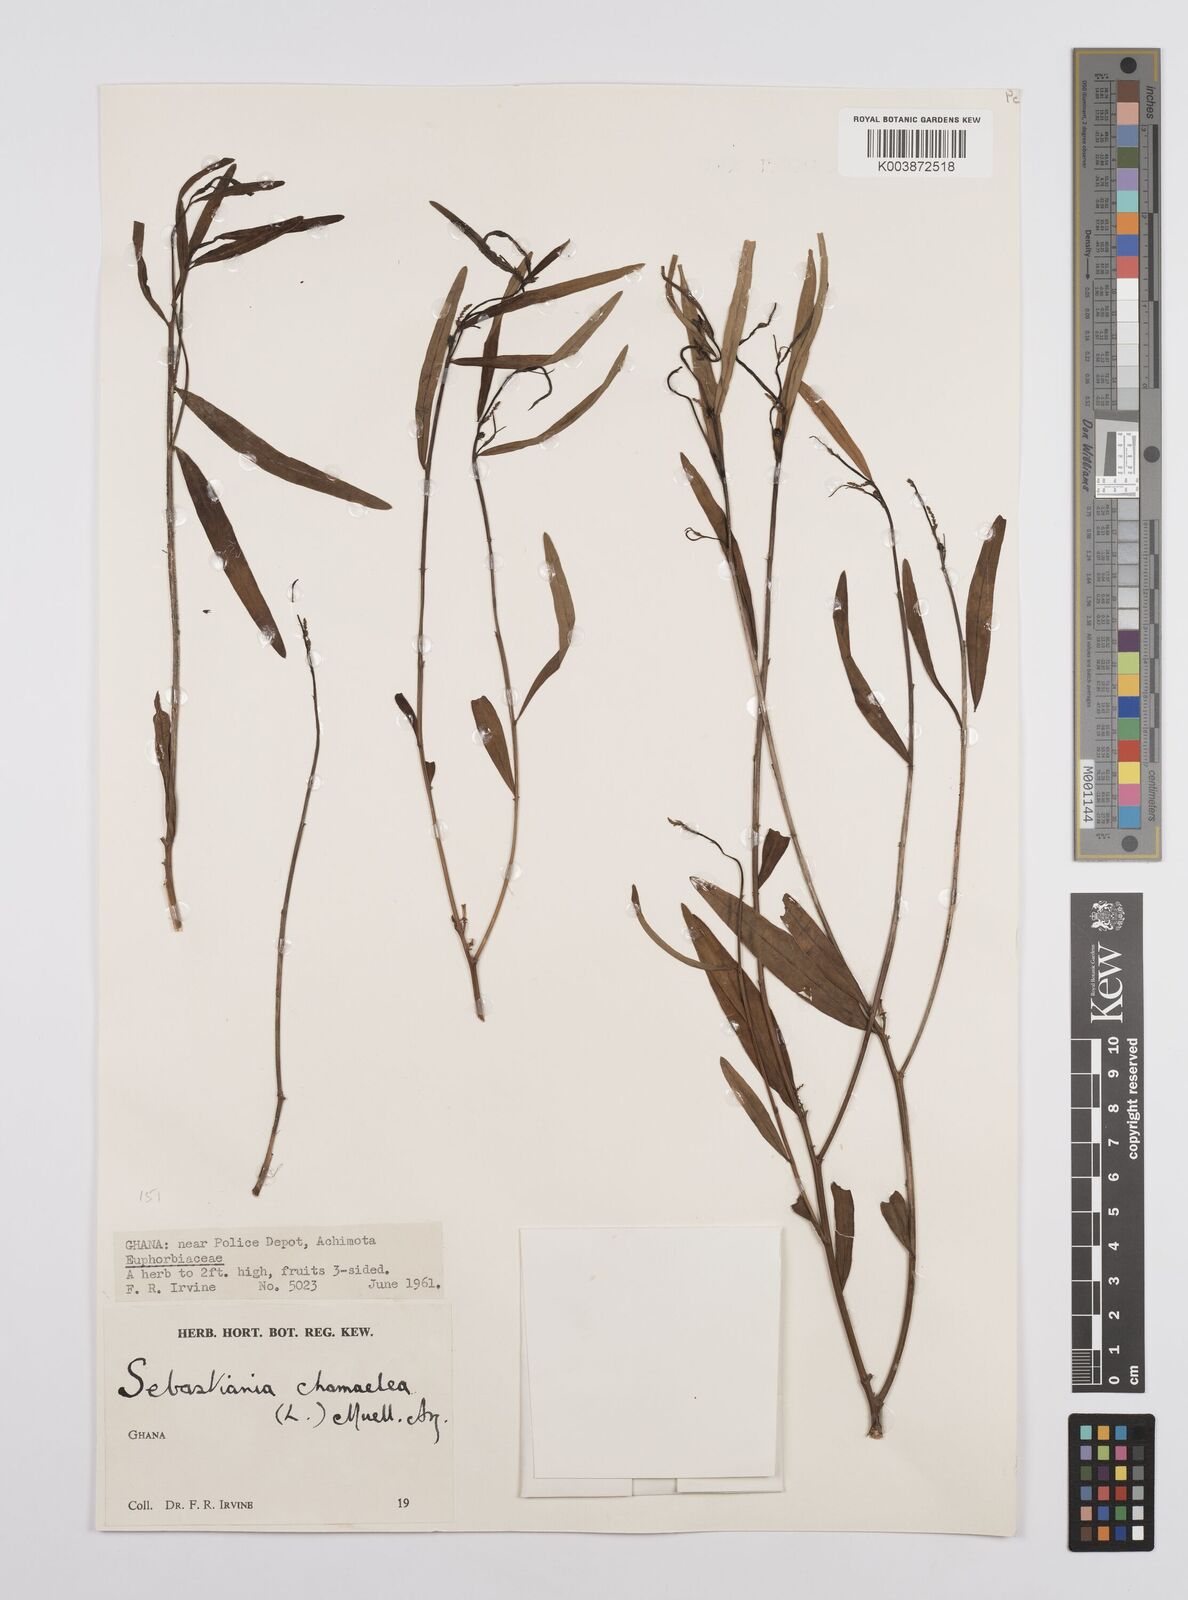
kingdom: Plantae
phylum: Tracheophyta
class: Magnoliopsida
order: Malpighiales
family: Euphorbiaceae
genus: Microstachys
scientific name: Microstachys chamaelea
